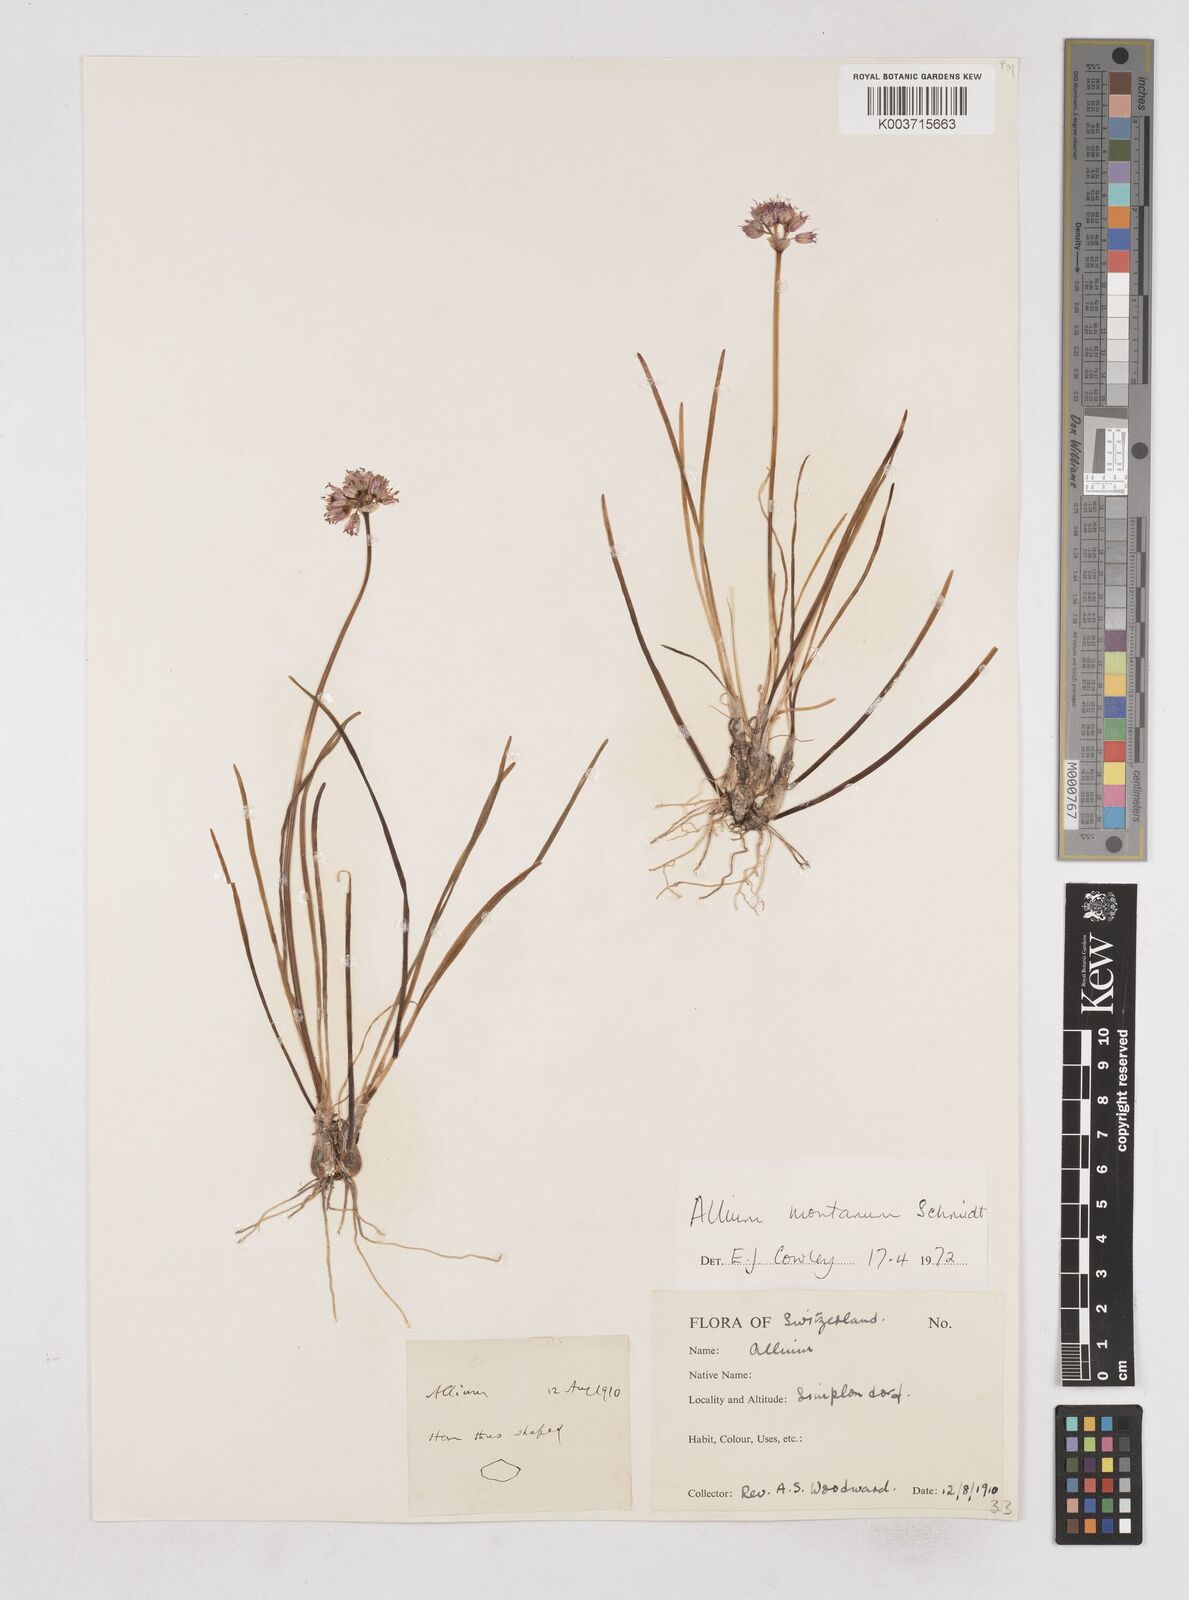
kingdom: Plantae
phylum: Tracheophyta
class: Liliopsida
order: Asparagales
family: Amaryllidaceae
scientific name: Amaryllidaceae
